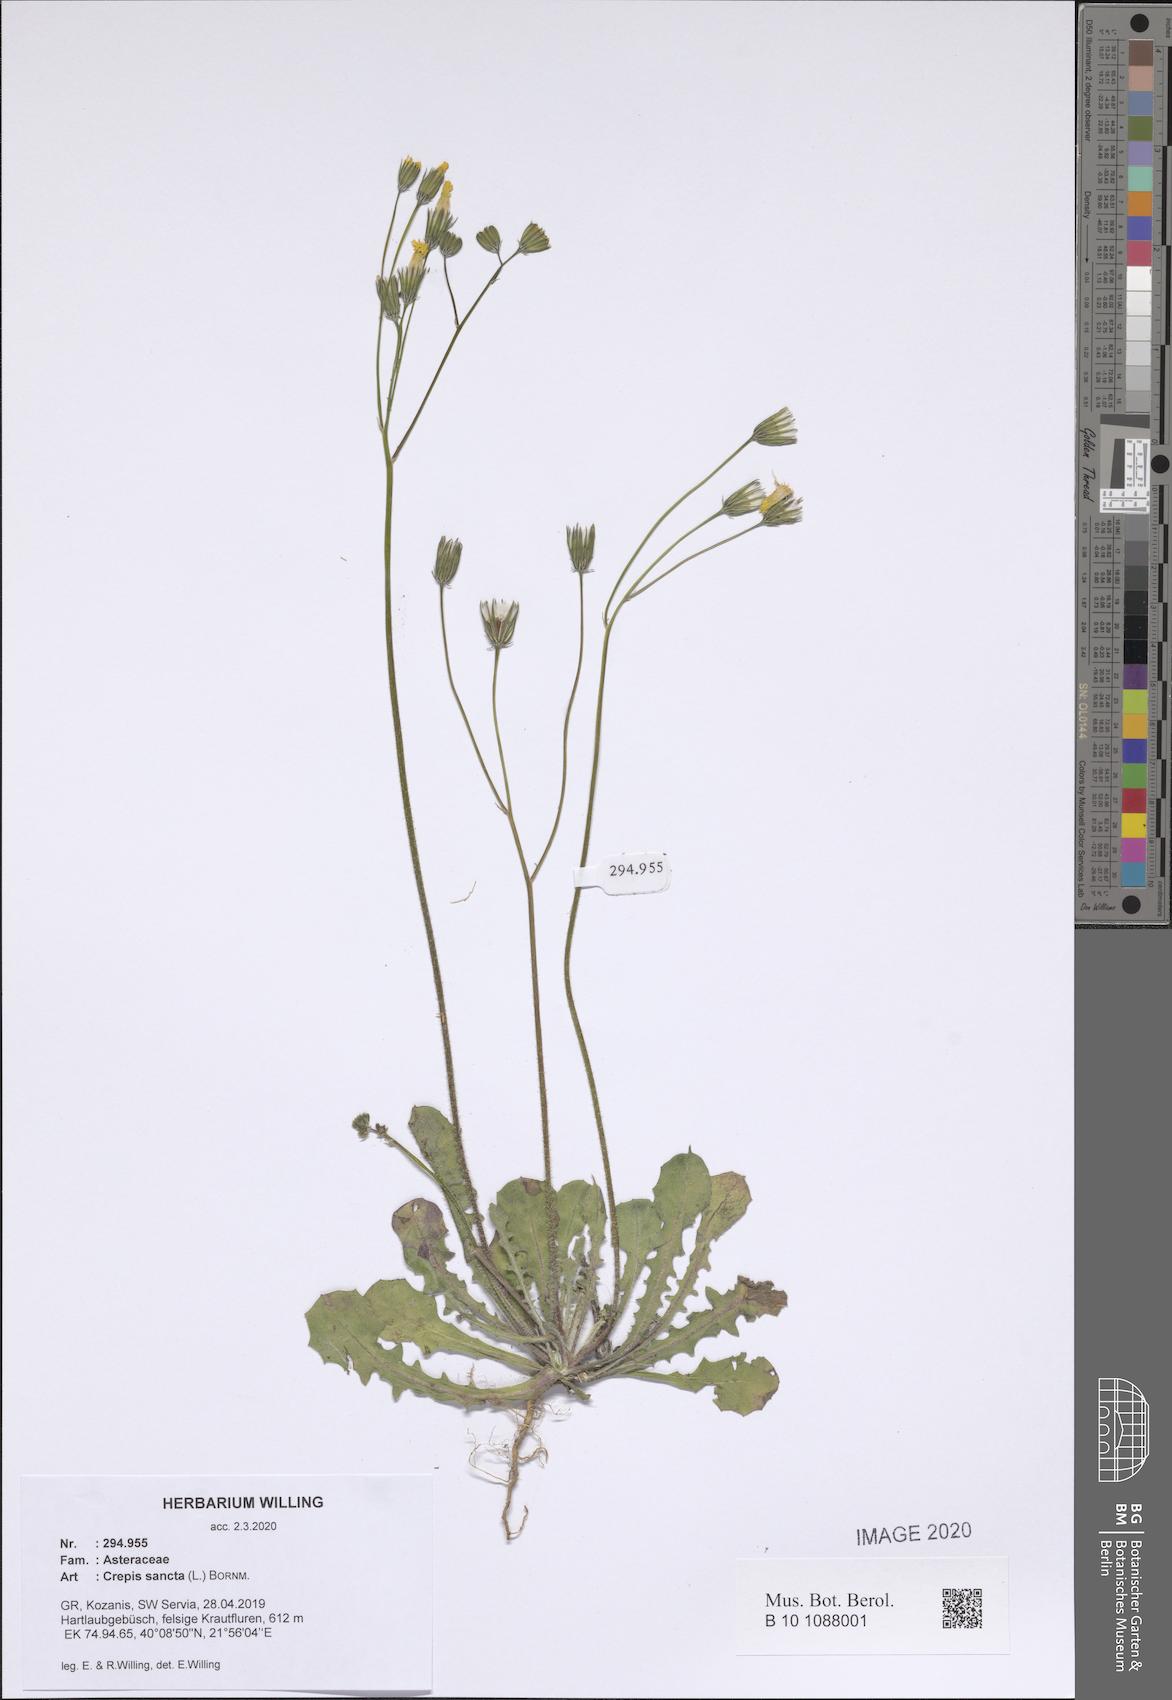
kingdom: Plantae
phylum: Tracheophyta
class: Magnoliopsida
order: Asterales
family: Asteraceae
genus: Crepis
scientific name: Crepis sancta
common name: Hawk's-beard
